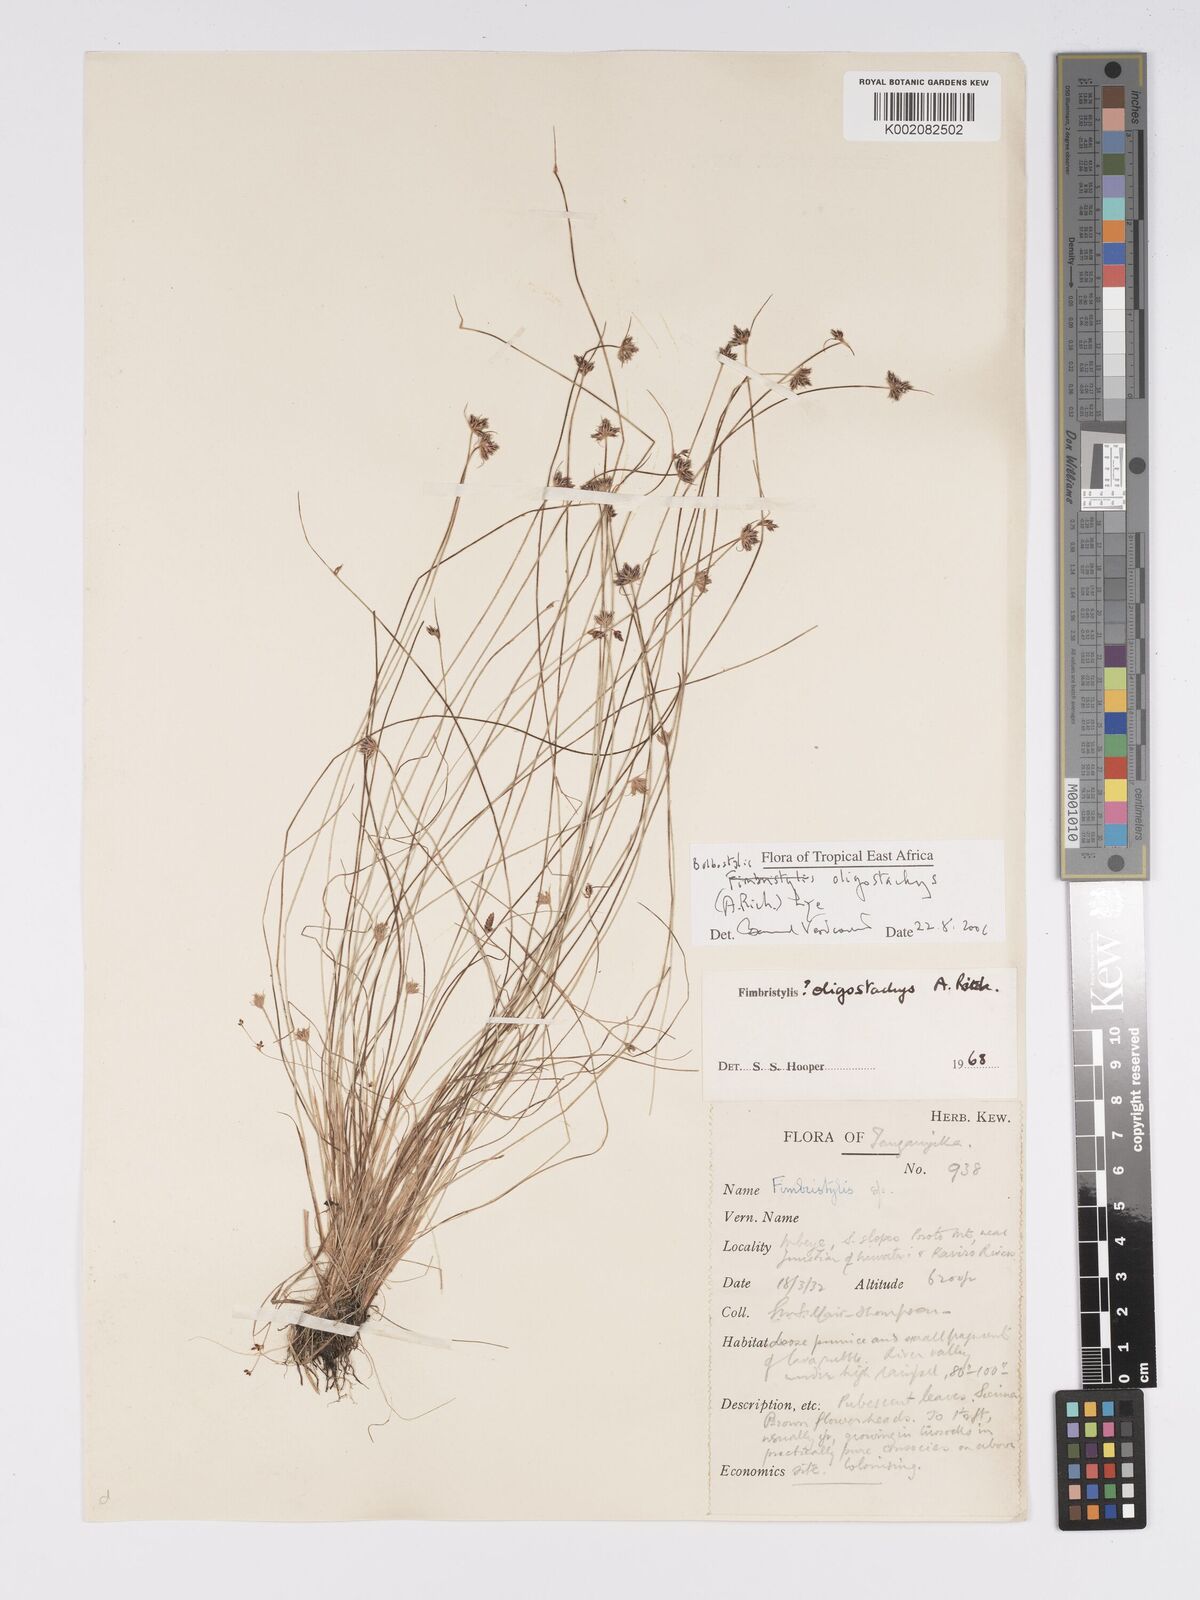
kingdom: Plantae
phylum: Tracheophyta
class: Liliopsida
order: Poales
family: Cyperaceae
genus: Bulbostylis
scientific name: Bulbostylis oligostachys
